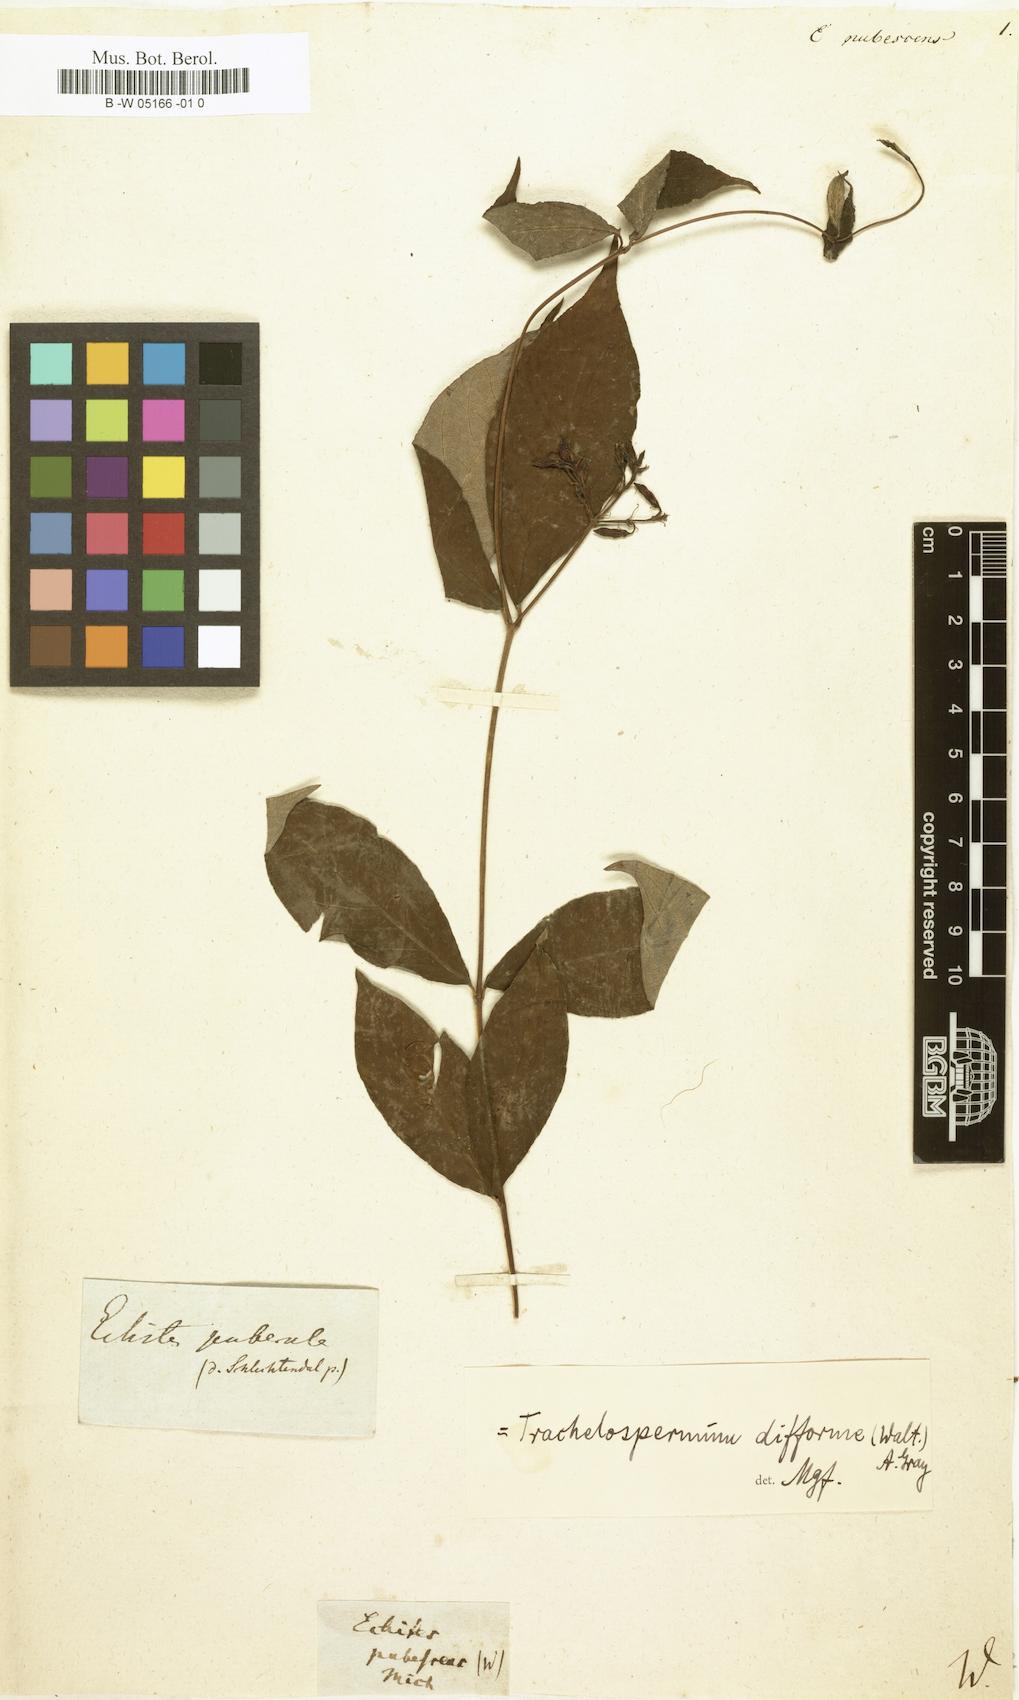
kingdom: Plantae
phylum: Tracheophyta
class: Magnoliopsida
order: Gentianales
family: Apocynaceae
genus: Mandevilla
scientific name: Mandevilla congesta
